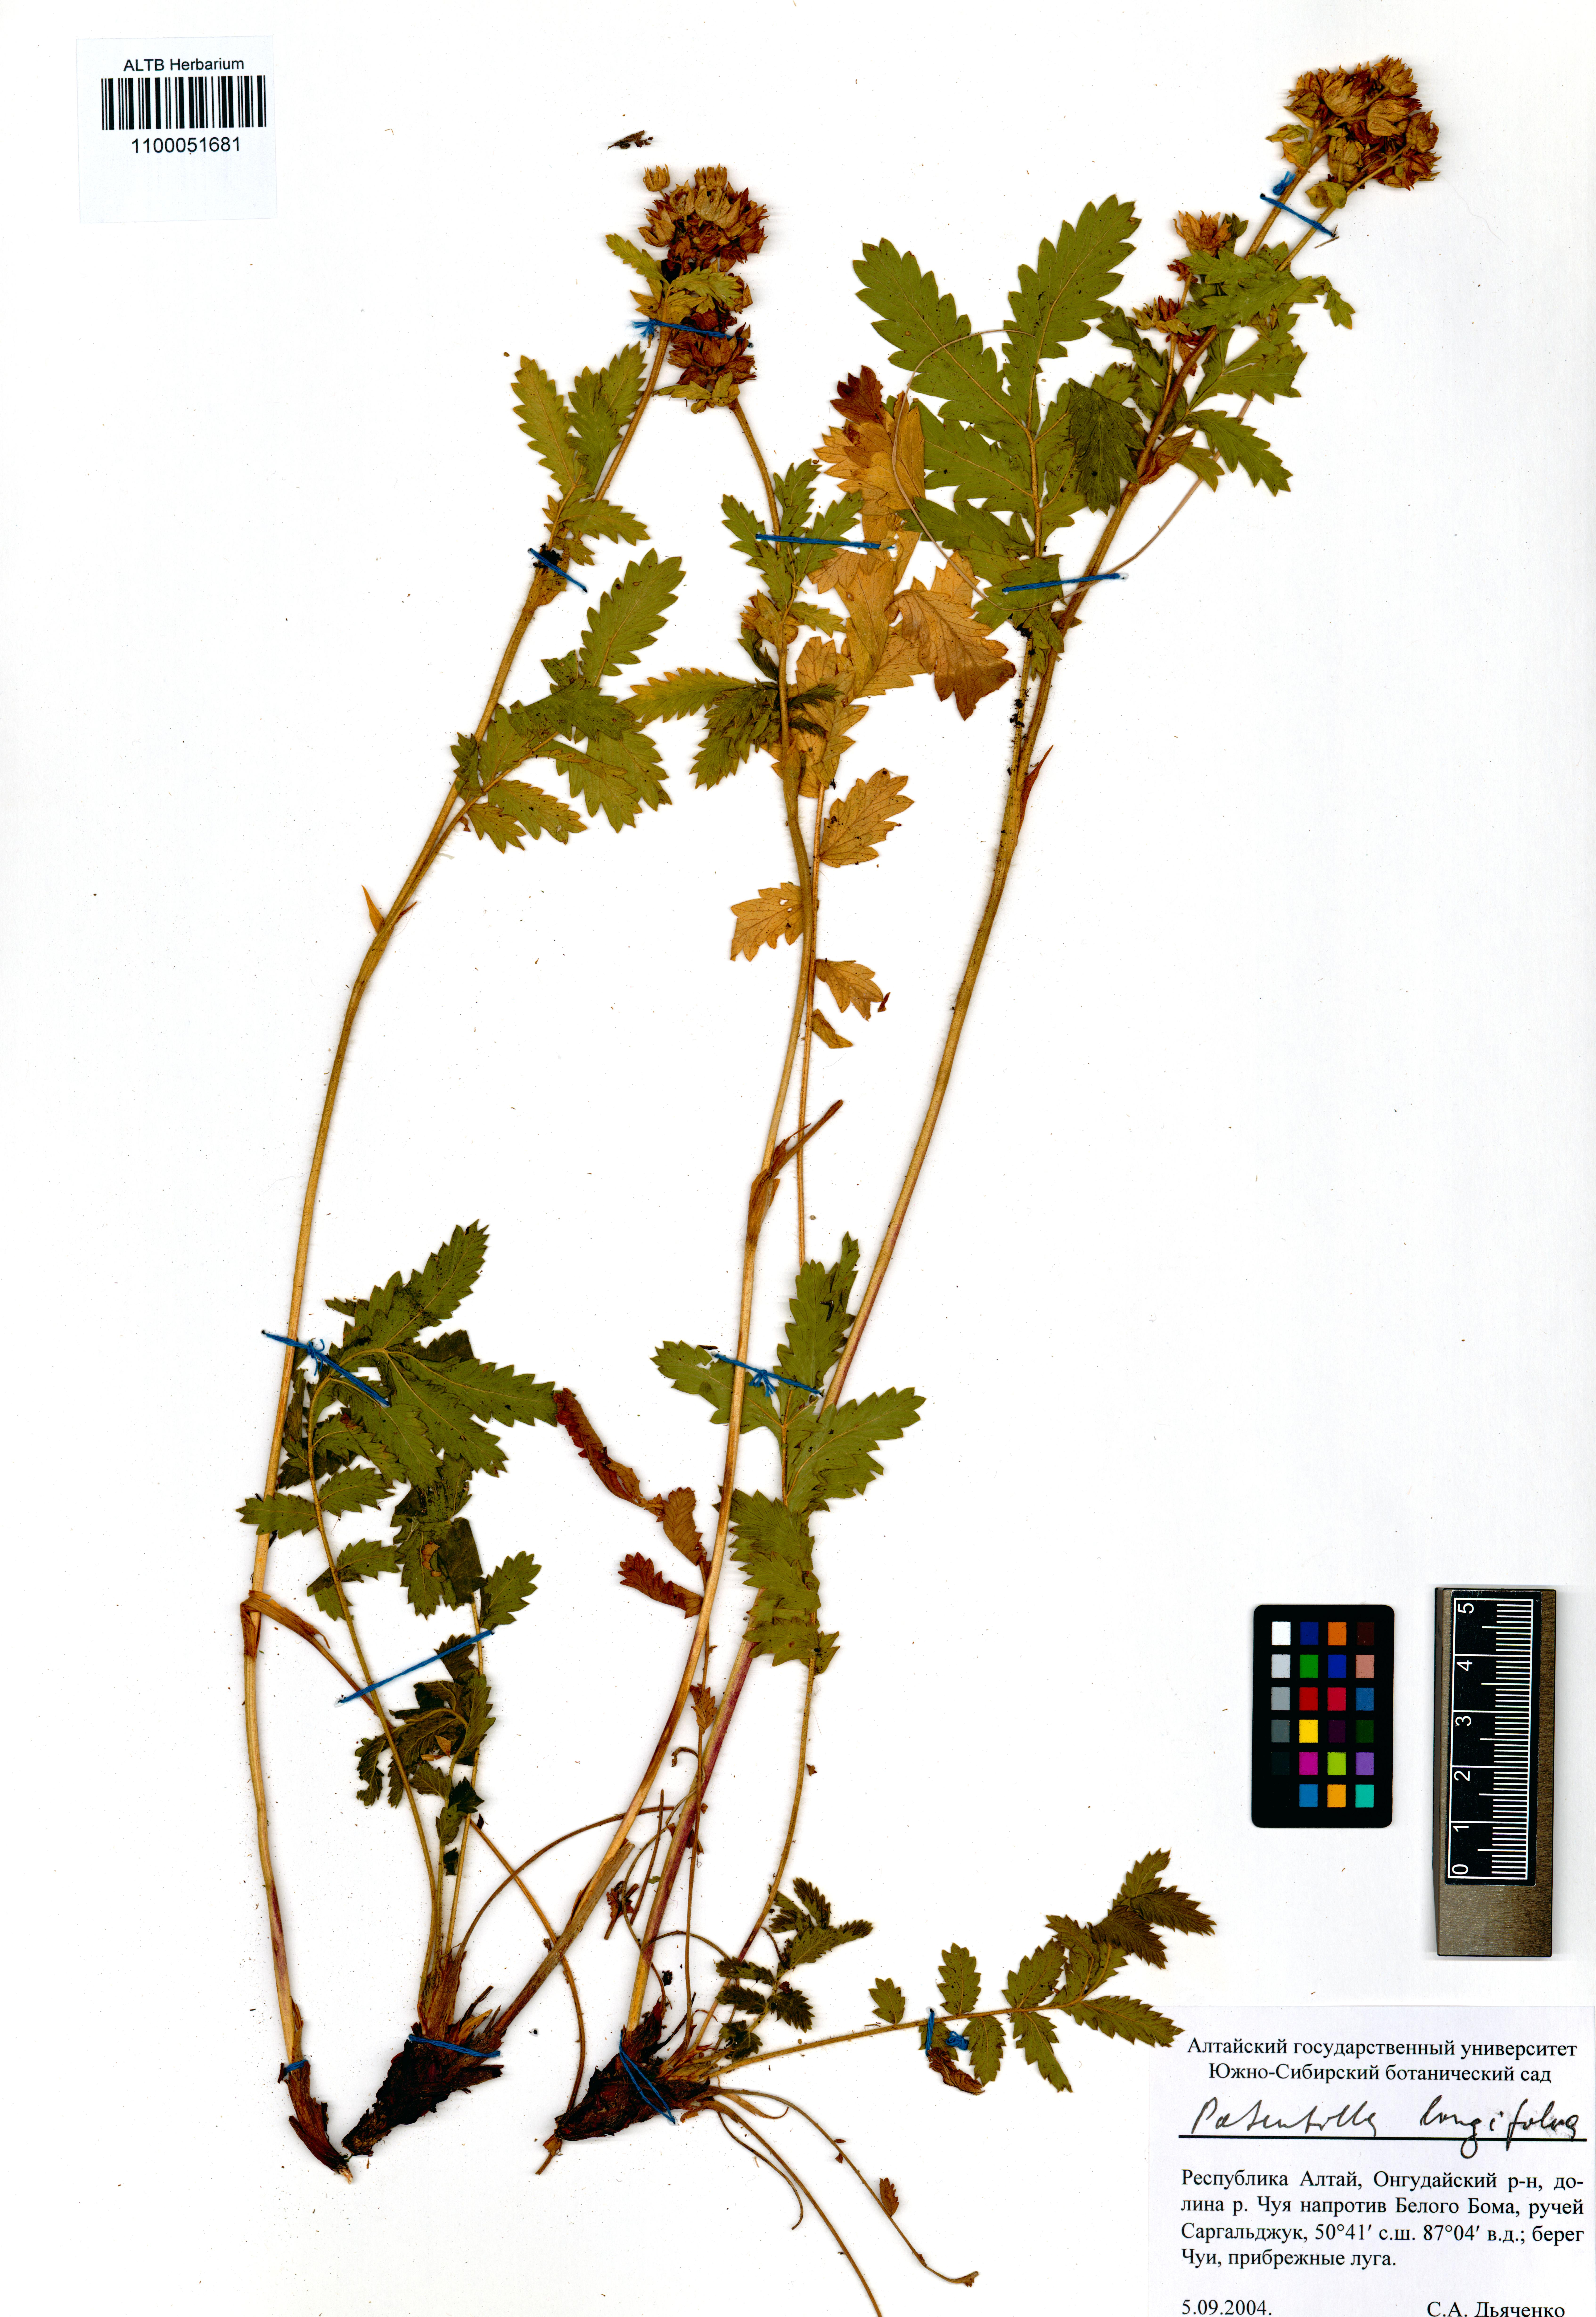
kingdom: Plantae
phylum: Tracheophyta
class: Magnoliopsida
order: Rosales
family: Rosaceae
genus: Potentilla
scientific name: Potentilla longifolia
